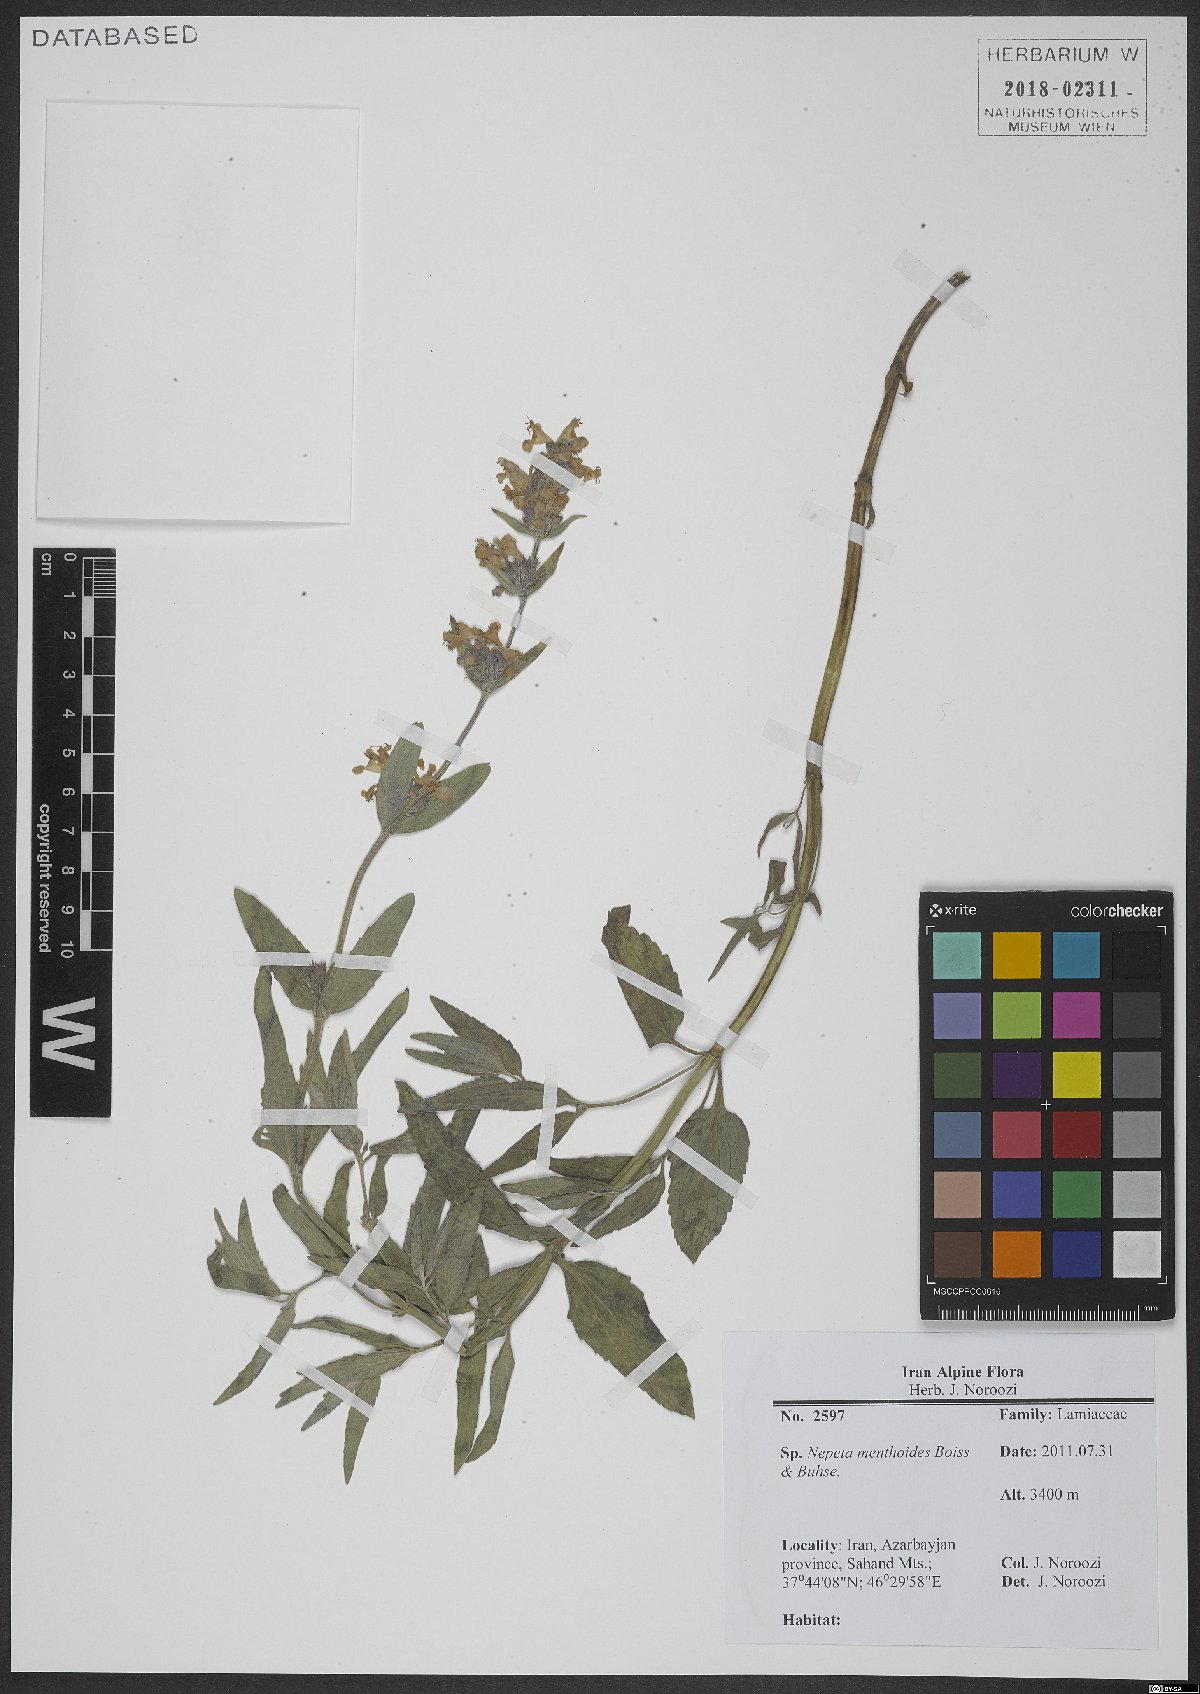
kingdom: Plantae
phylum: Tracheophyta
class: Magnoliopsida
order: Lamiales
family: Lamiaceae
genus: Nepeta
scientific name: Nepeta menthoides
